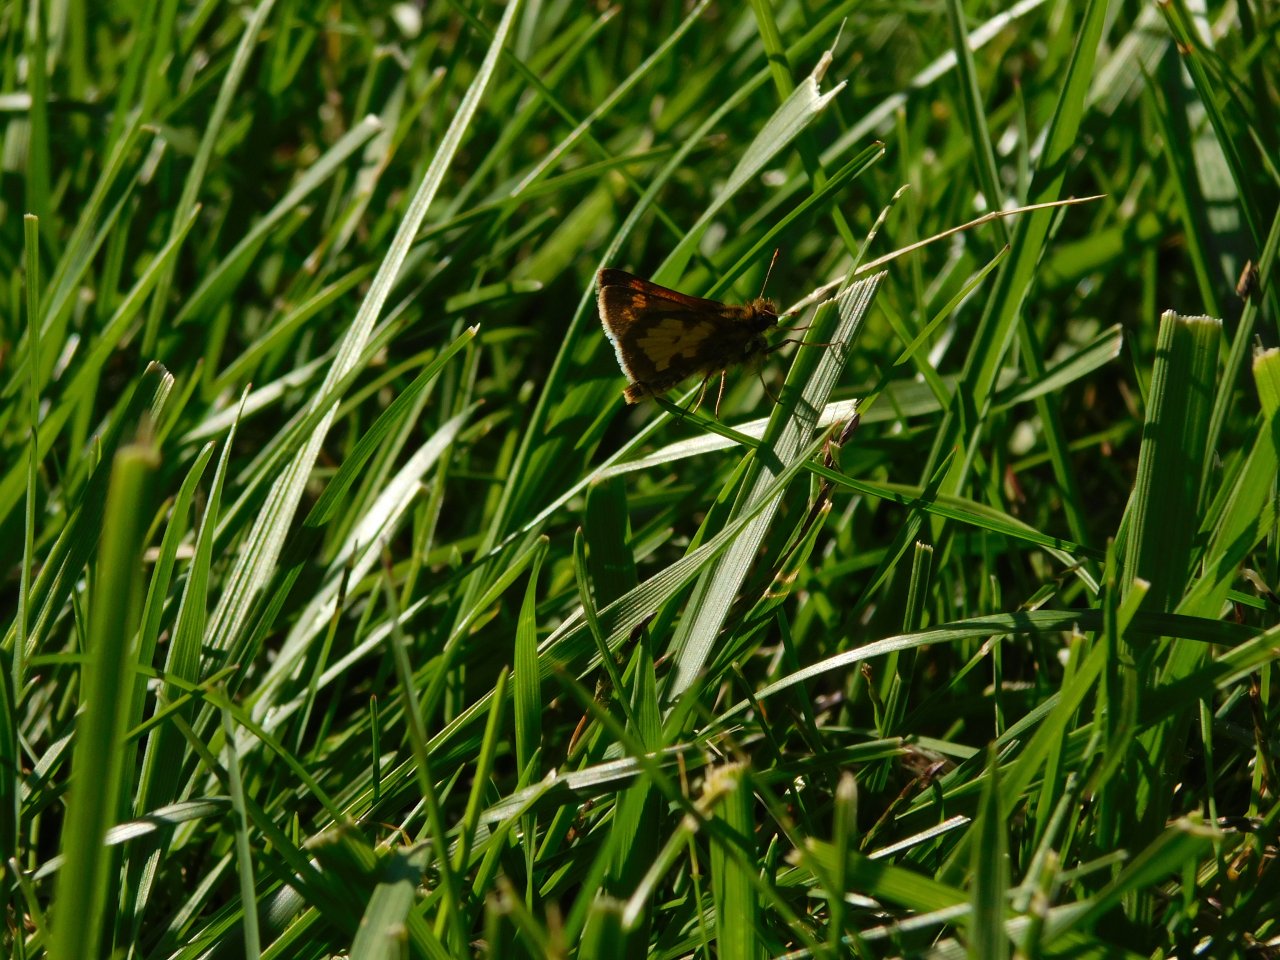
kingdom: Animalia
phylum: Arthropoda
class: Insecta
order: Lepidoptera
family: Hesperiidae
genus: Polites
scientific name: Polites coras
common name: Peck's Skipper
